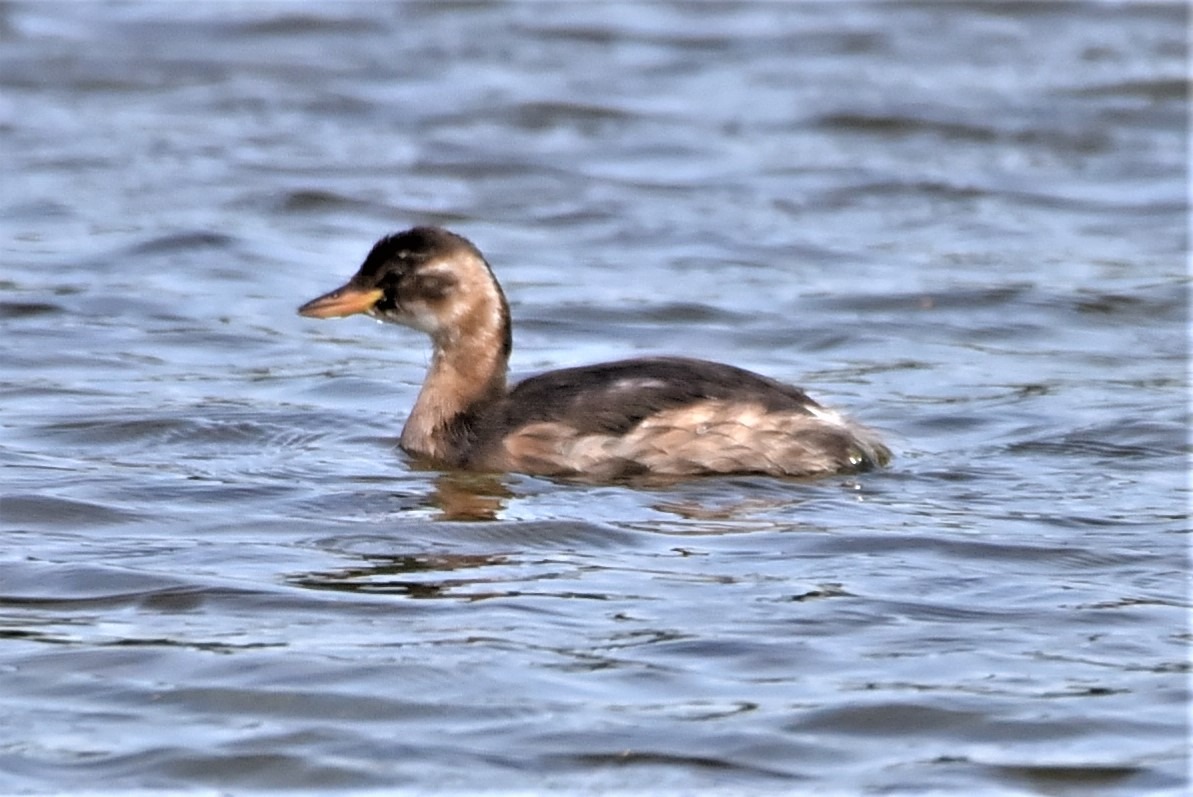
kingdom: Animalia
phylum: Chordata
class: Aves
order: Podicipediformes
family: Podicipedidae
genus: Tachybaptus
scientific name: Tachybaptus ruficollis
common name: Lille lappedykker
